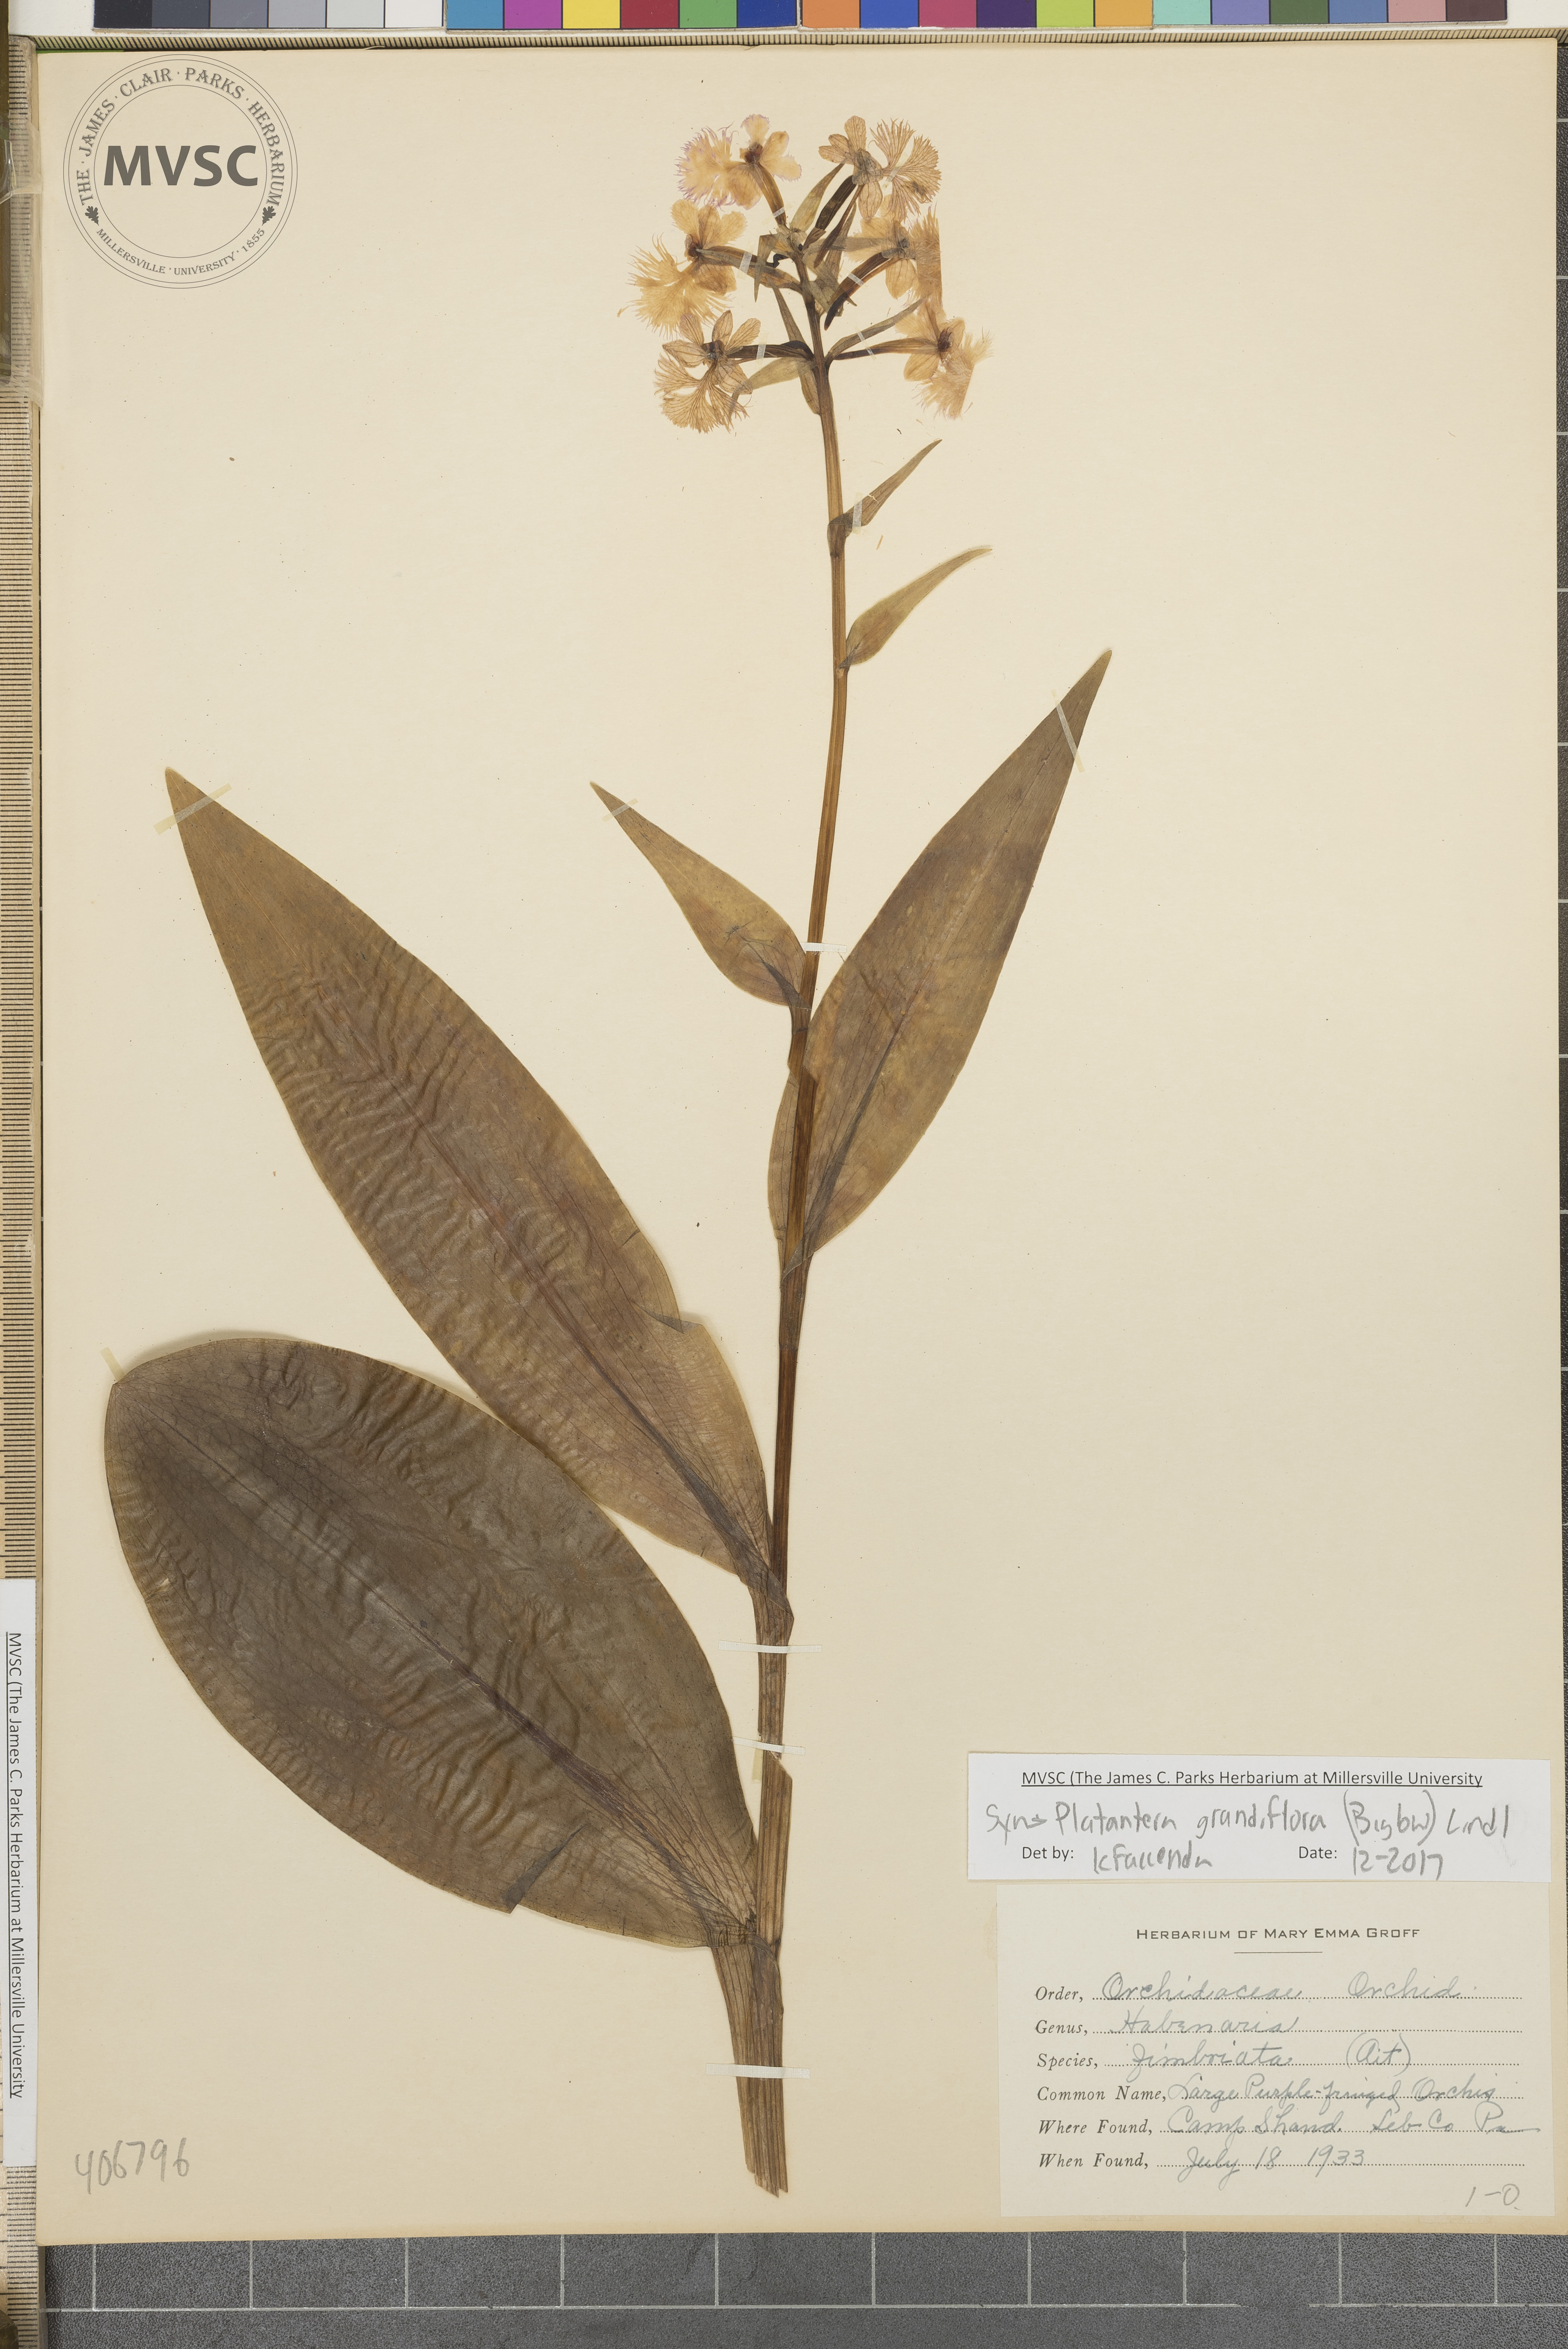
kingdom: Plantae
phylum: Tracheophyta
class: Liliopsida
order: Asparagales
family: Orchidaceae
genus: Platanthera
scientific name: Platanthera grandiflora
